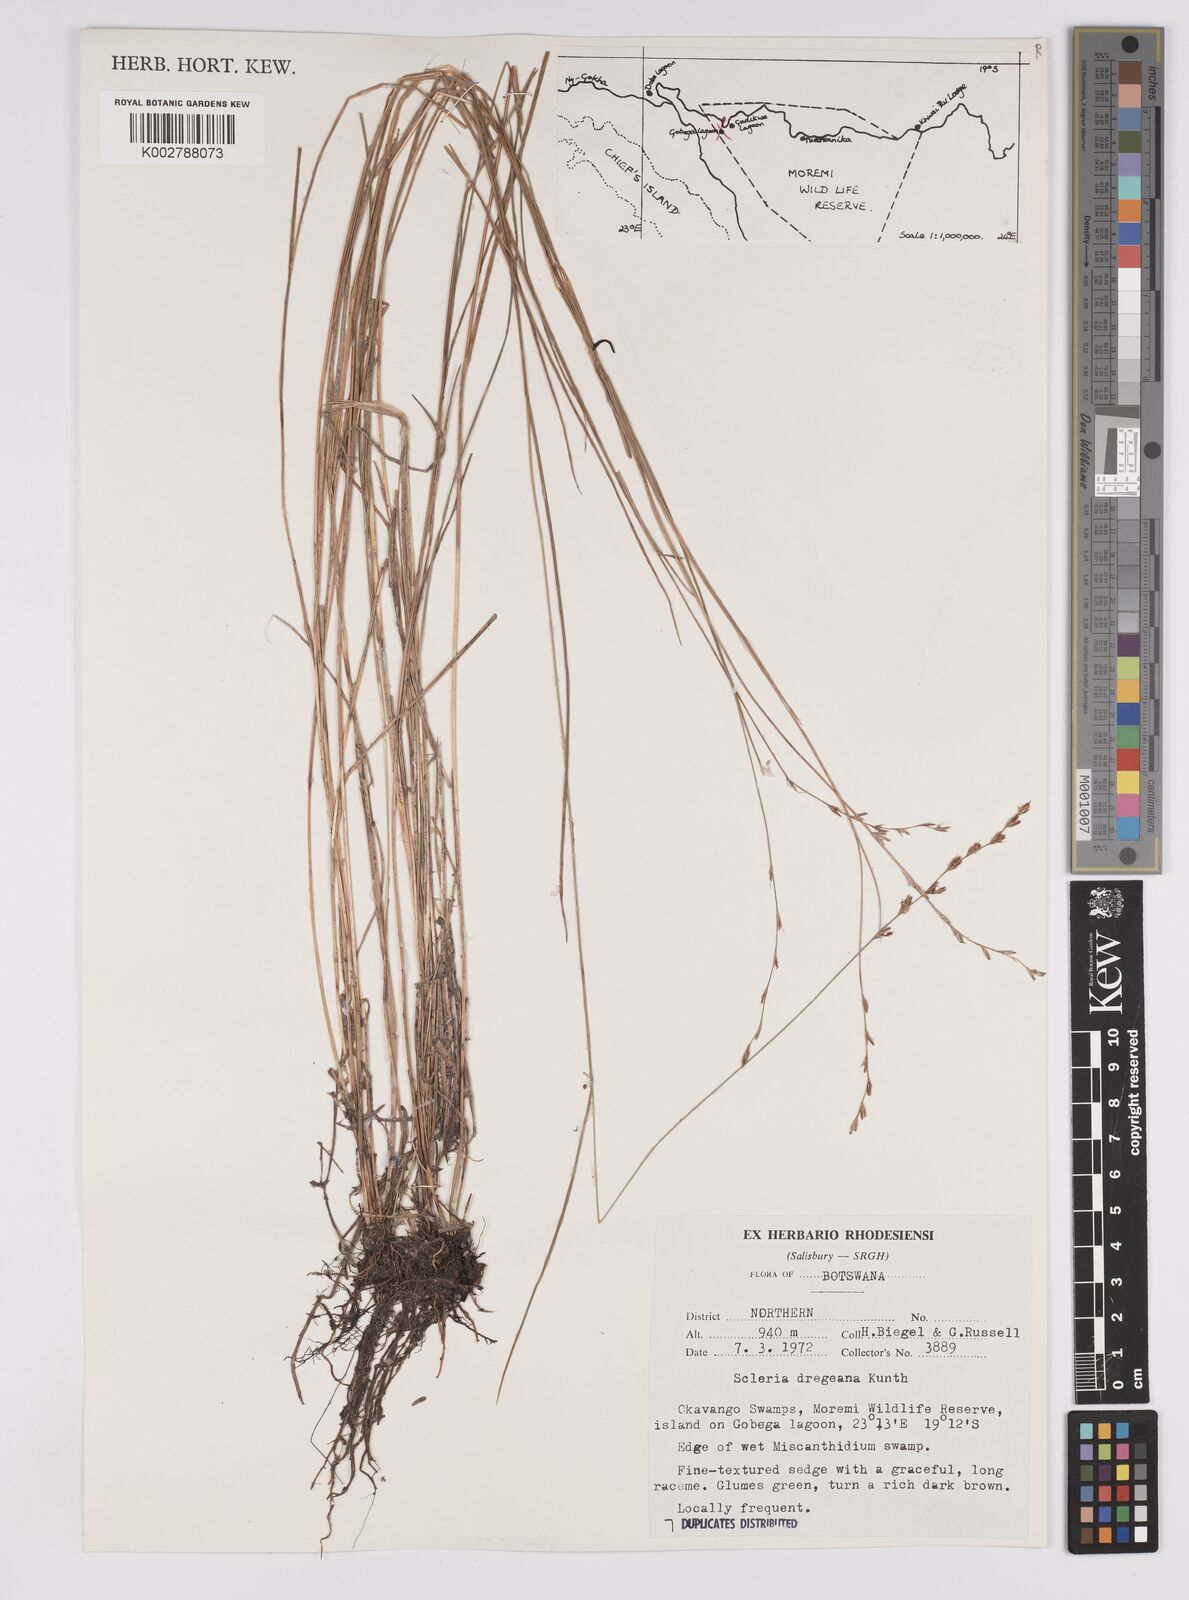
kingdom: Plantae
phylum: Tracheophyta
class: Liliopsida
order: Poales
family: Cyperaceae
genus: Scleria
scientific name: Scleria dregeana
